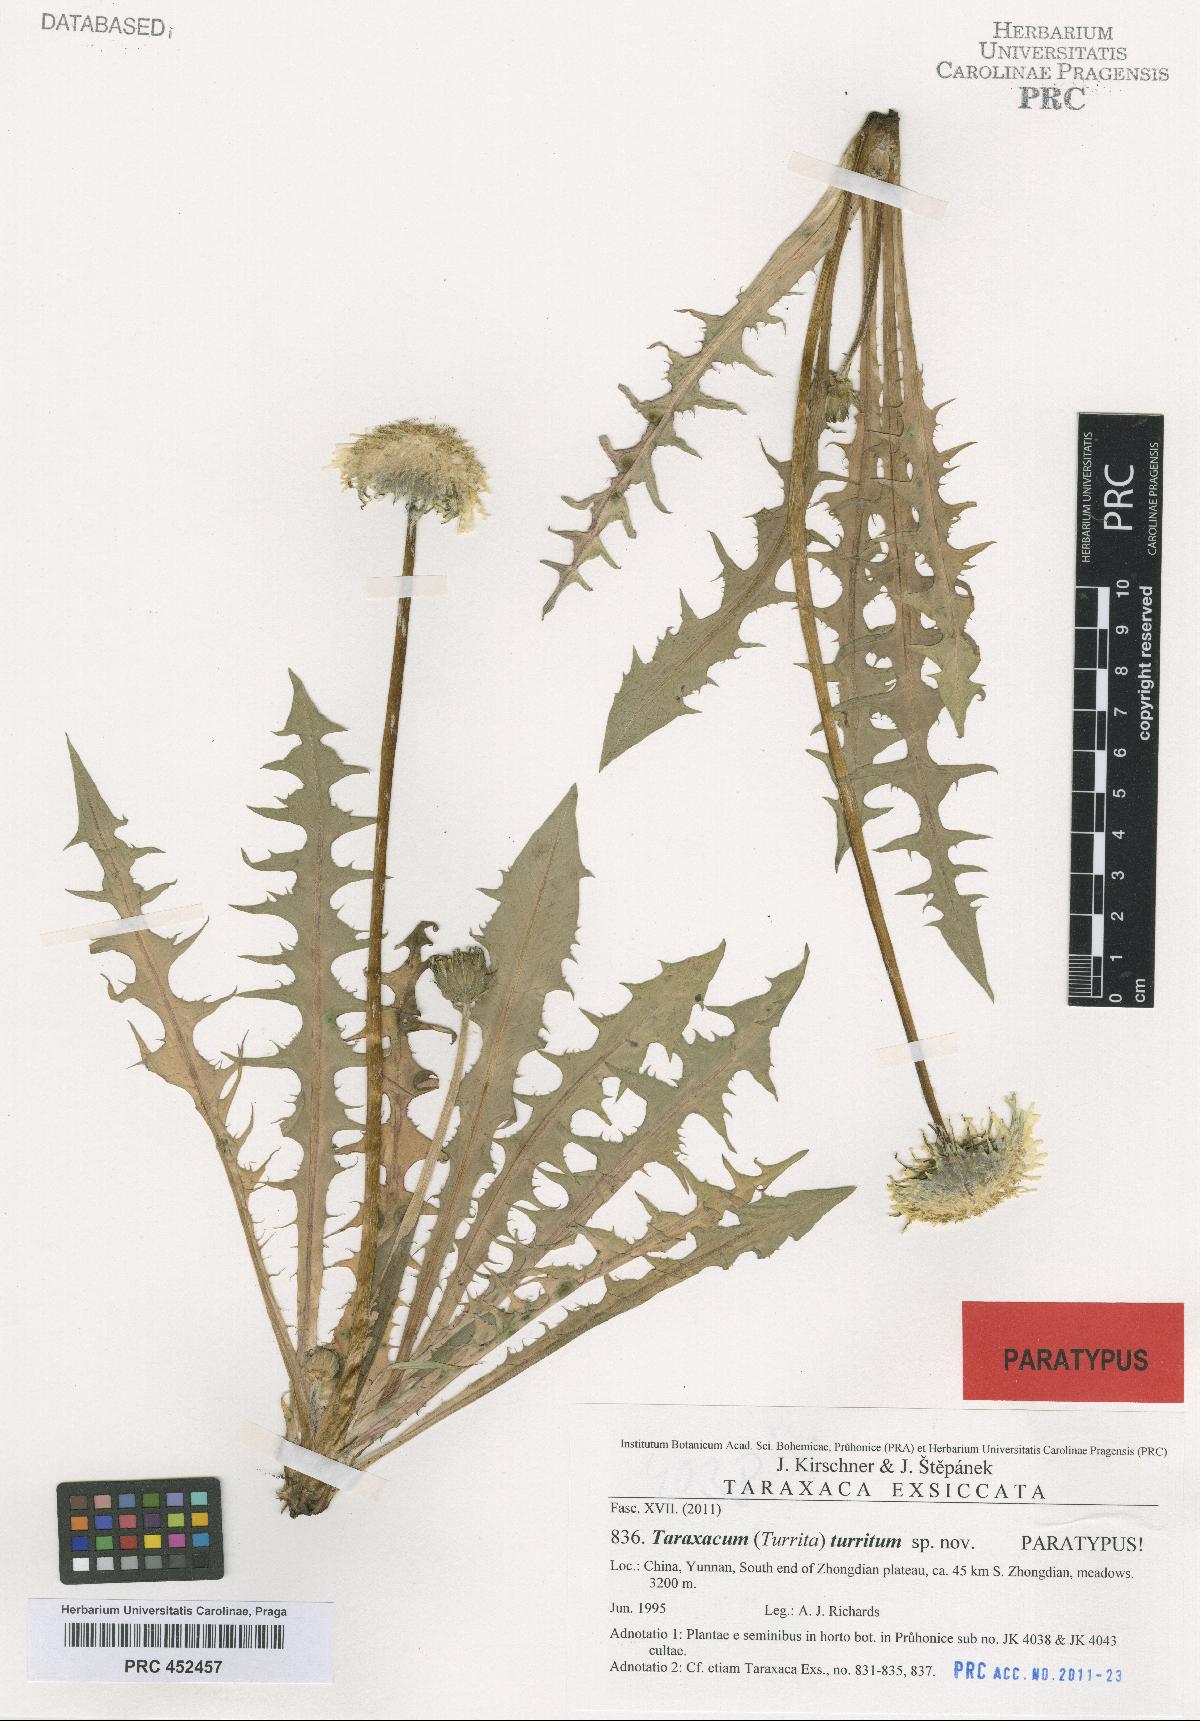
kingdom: Plantae
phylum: Tracheophyta
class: Magnoliopsida
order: Asterales
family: Asteraceae
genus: Taraxacum
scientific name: Taraxacum turritum
